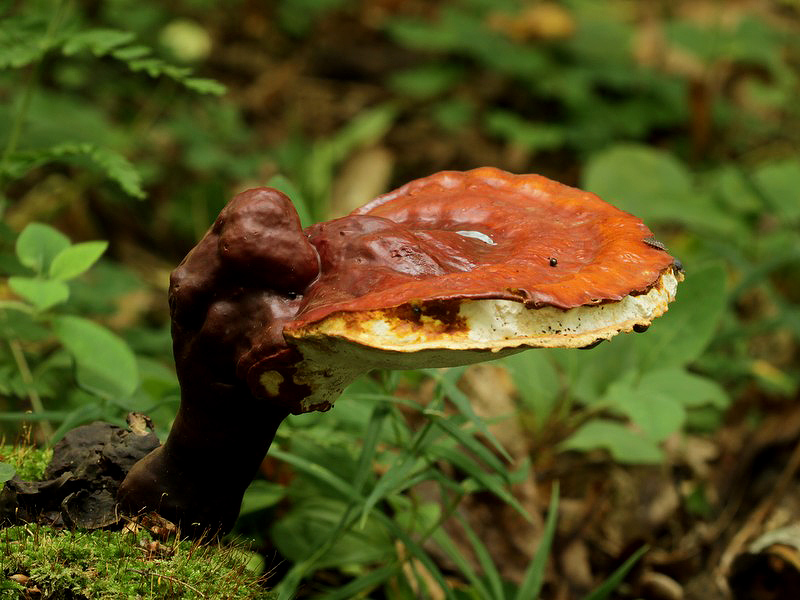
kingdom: Fungi
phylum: Basidiomycota
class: Agaricomycetes
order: Polyporales
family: Polyporaceae
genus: Ganoderma
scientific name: Ganoderma lucidum
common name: skinnende lakporesvamp
